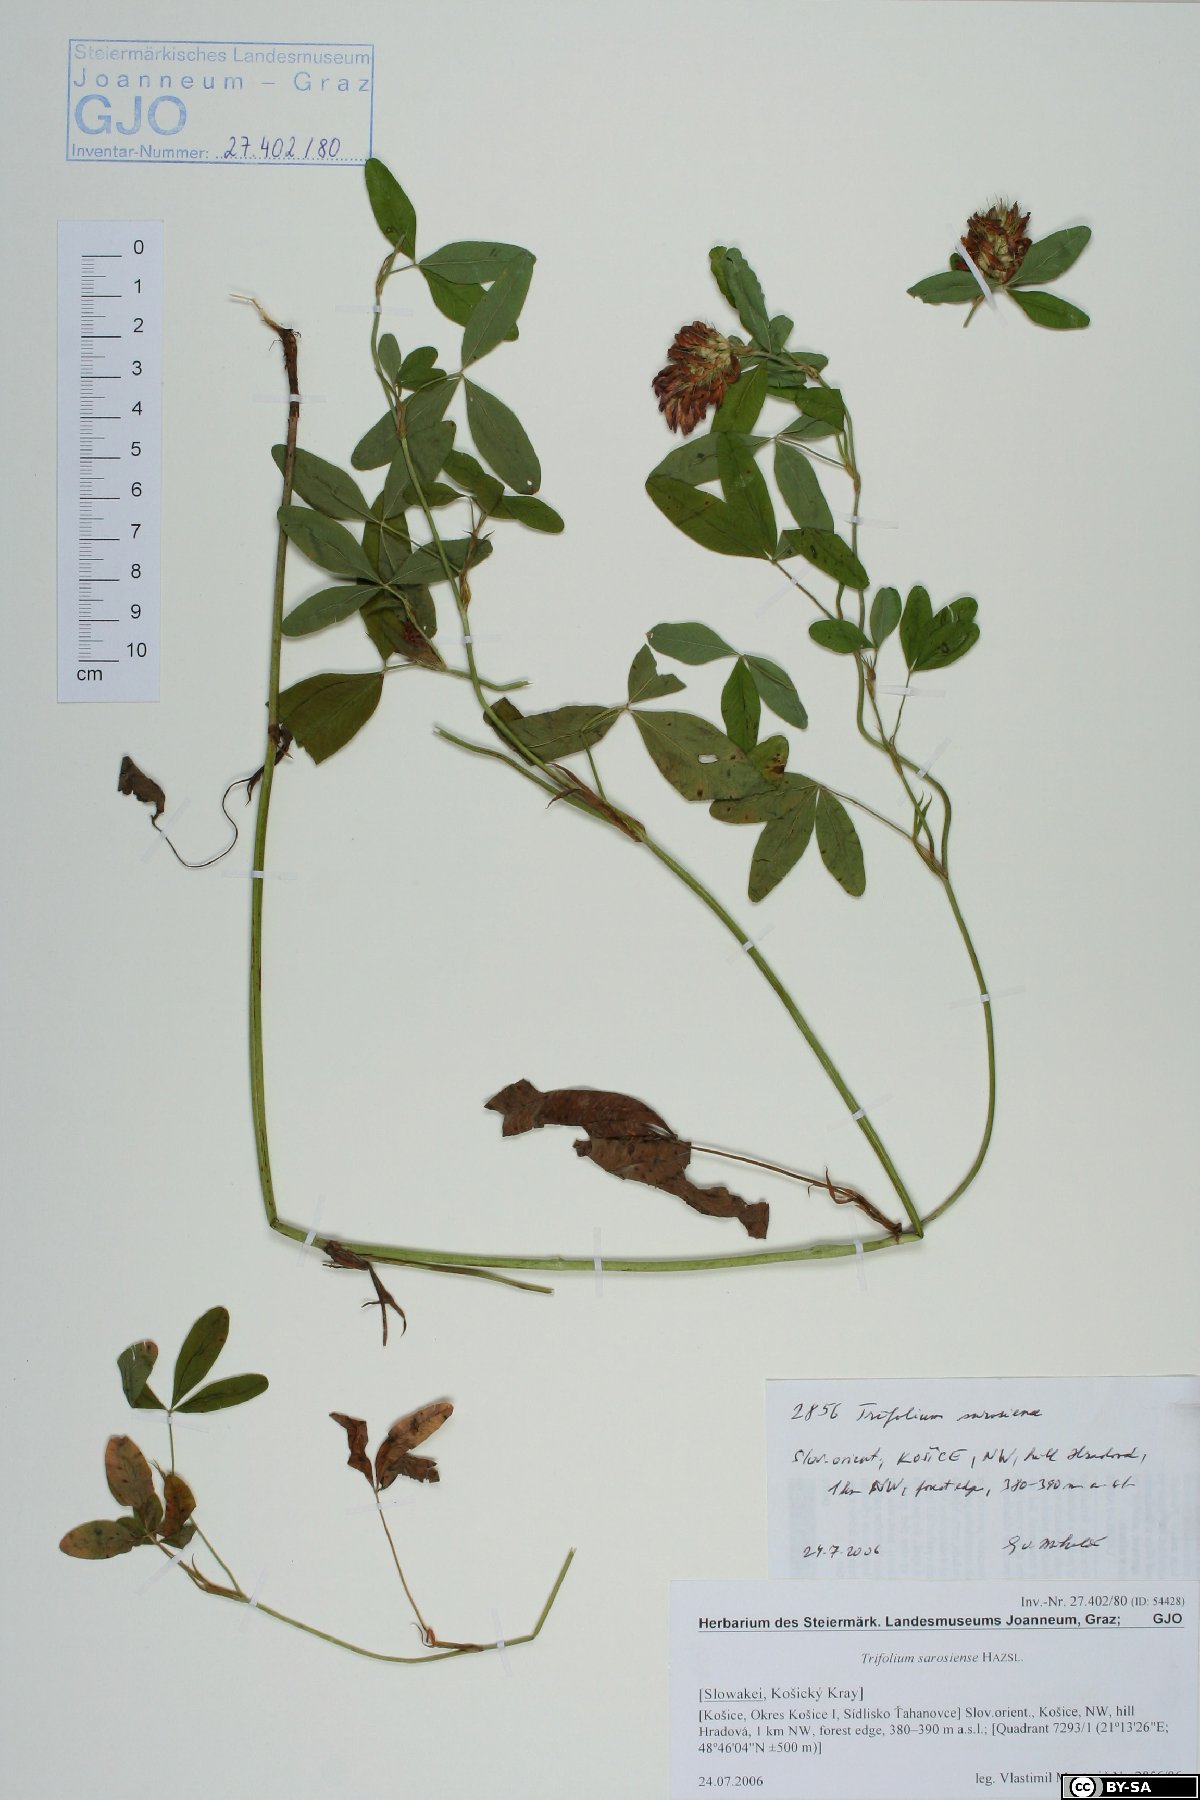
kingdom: Plantae
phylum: Tracheophyta
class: Magnoliopsida
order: Fabales
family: Fabaceae
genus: Trifolium
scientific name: Trifolium sarosiense
